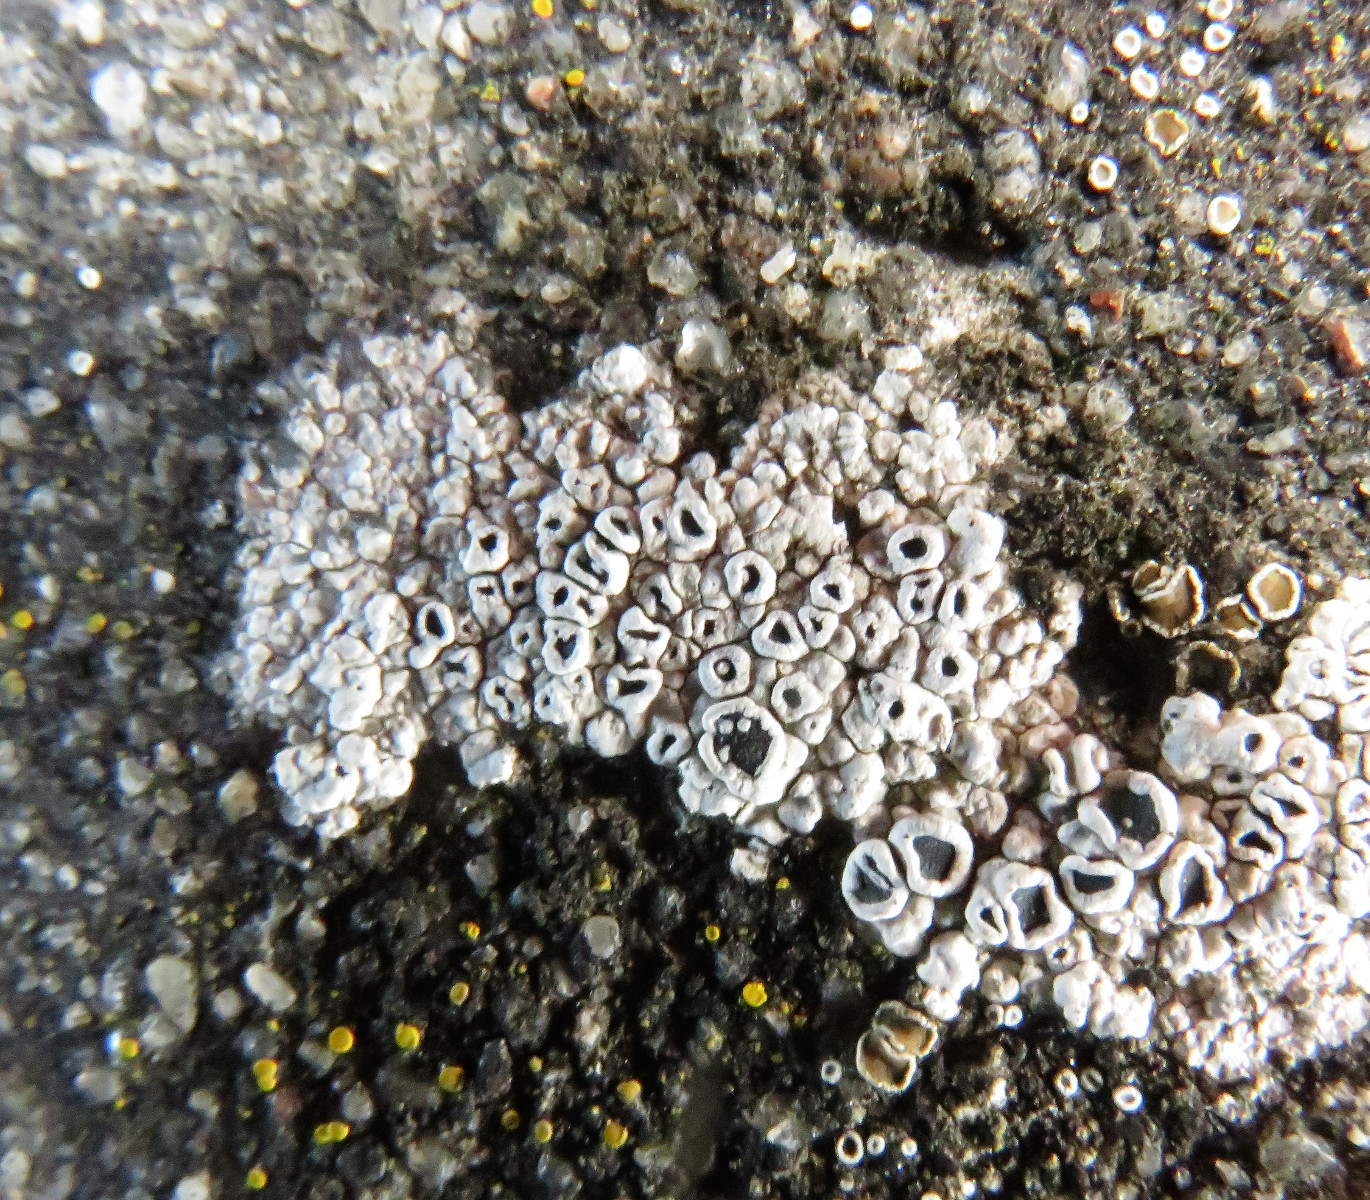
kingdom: Fungi
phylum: Ascomycota
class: Lecanoromycetes
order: Lecanorales
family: Lecanoraceae
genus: Polyozosia
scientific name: Polyozosia albescens
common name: cement-kantskivelav
